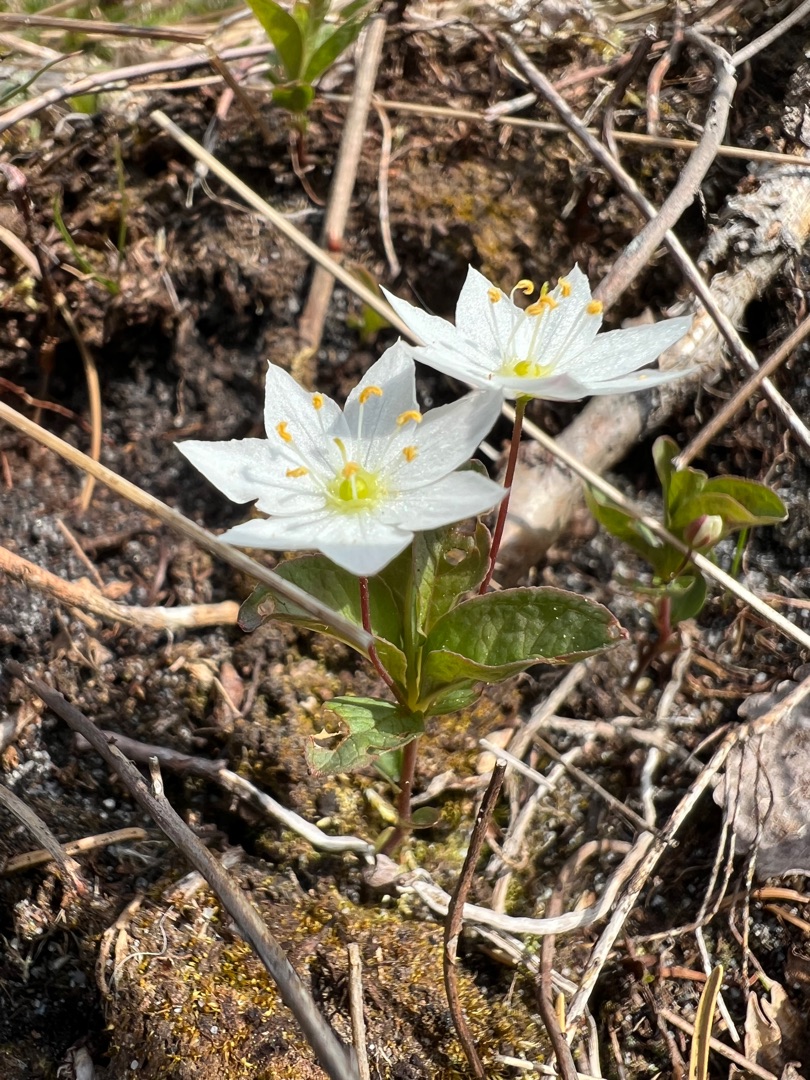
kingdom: Plantae
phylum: Tracheophyta
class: Magnoliopsida
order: Ericales
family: Primulaceae
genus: Lysimachia
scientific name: Lysimachia europaea
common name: Skovstjerne
